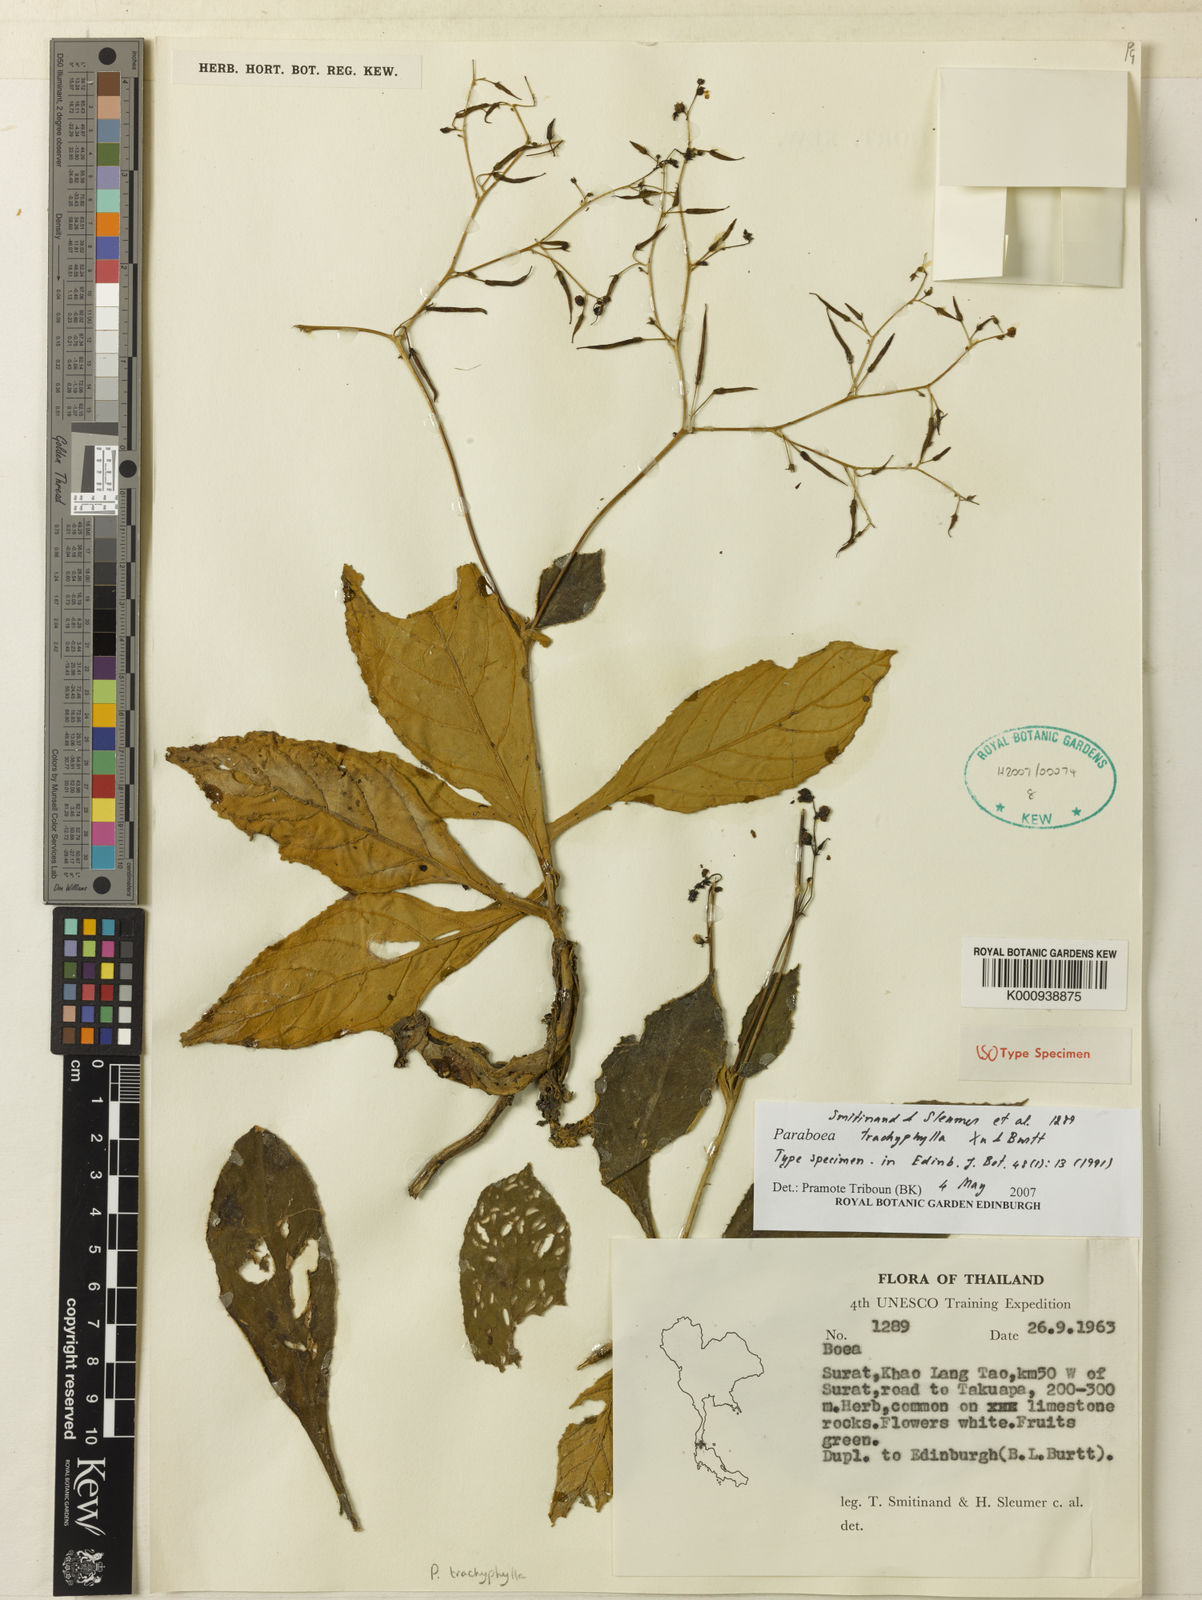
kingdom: Plantae
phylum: Tracheophyta
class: Magnoliopsida
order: Lamiales
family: Gesneriaceae
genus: Paraboea
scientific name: Paraboea trachyphylla
